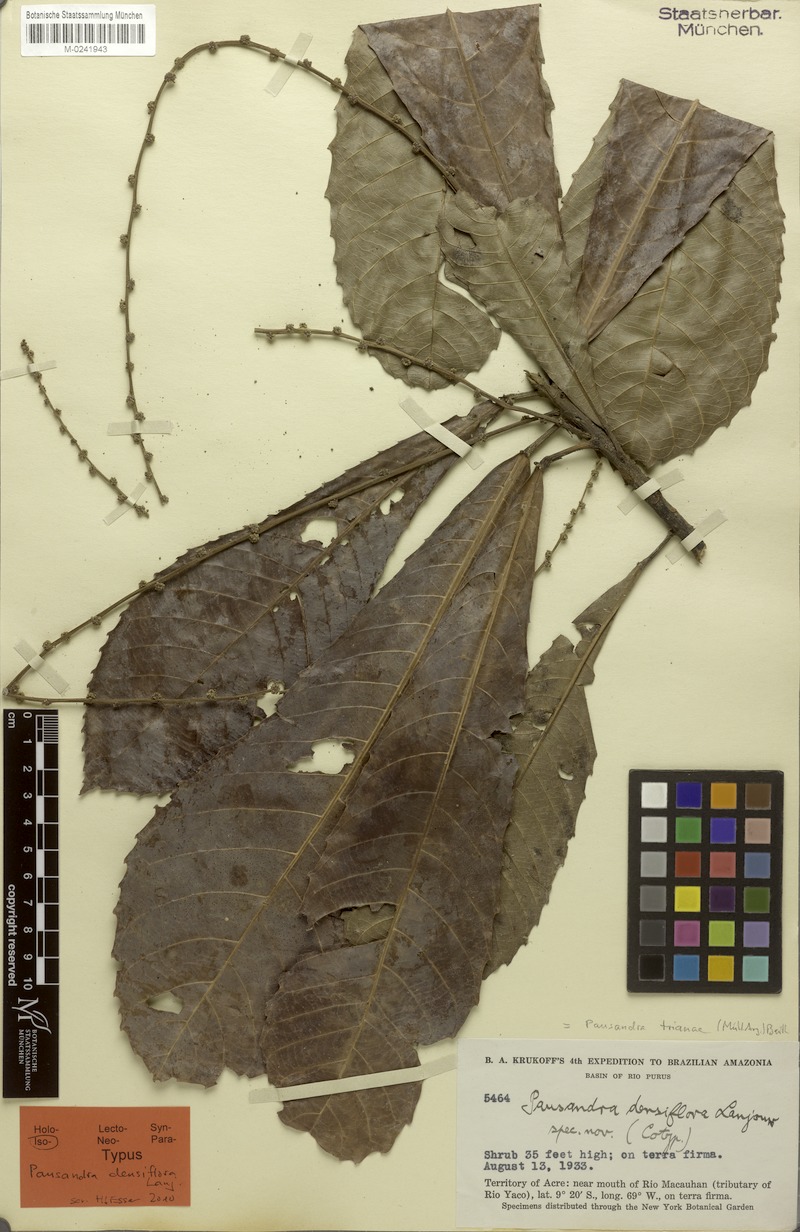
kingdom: Plantae
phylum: Tracheophyta
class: Magnoliopsida
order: Malpighiales
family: Euphorbiaceae
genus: Pausandra
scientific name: Pausandra trianae
